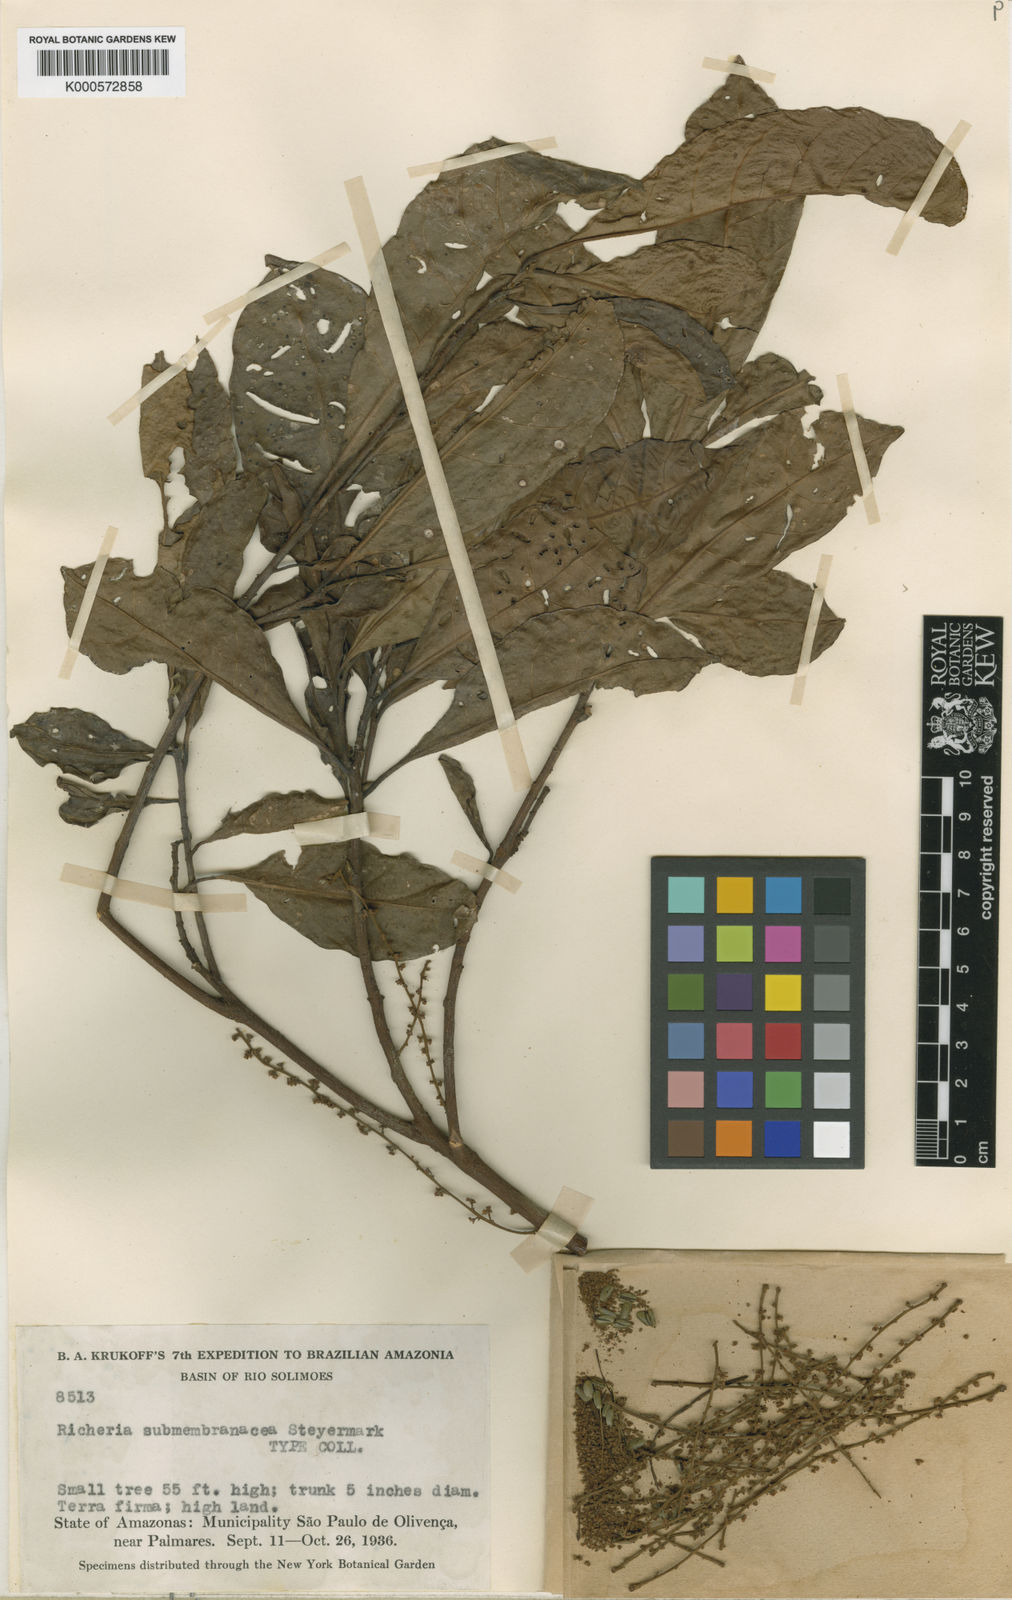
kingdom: Plantae
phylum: Tracheophyta
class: Magnoliopsida
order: Malpighiales
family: Phyllanthaceae
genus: Richeria
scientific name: Richeria grandis
